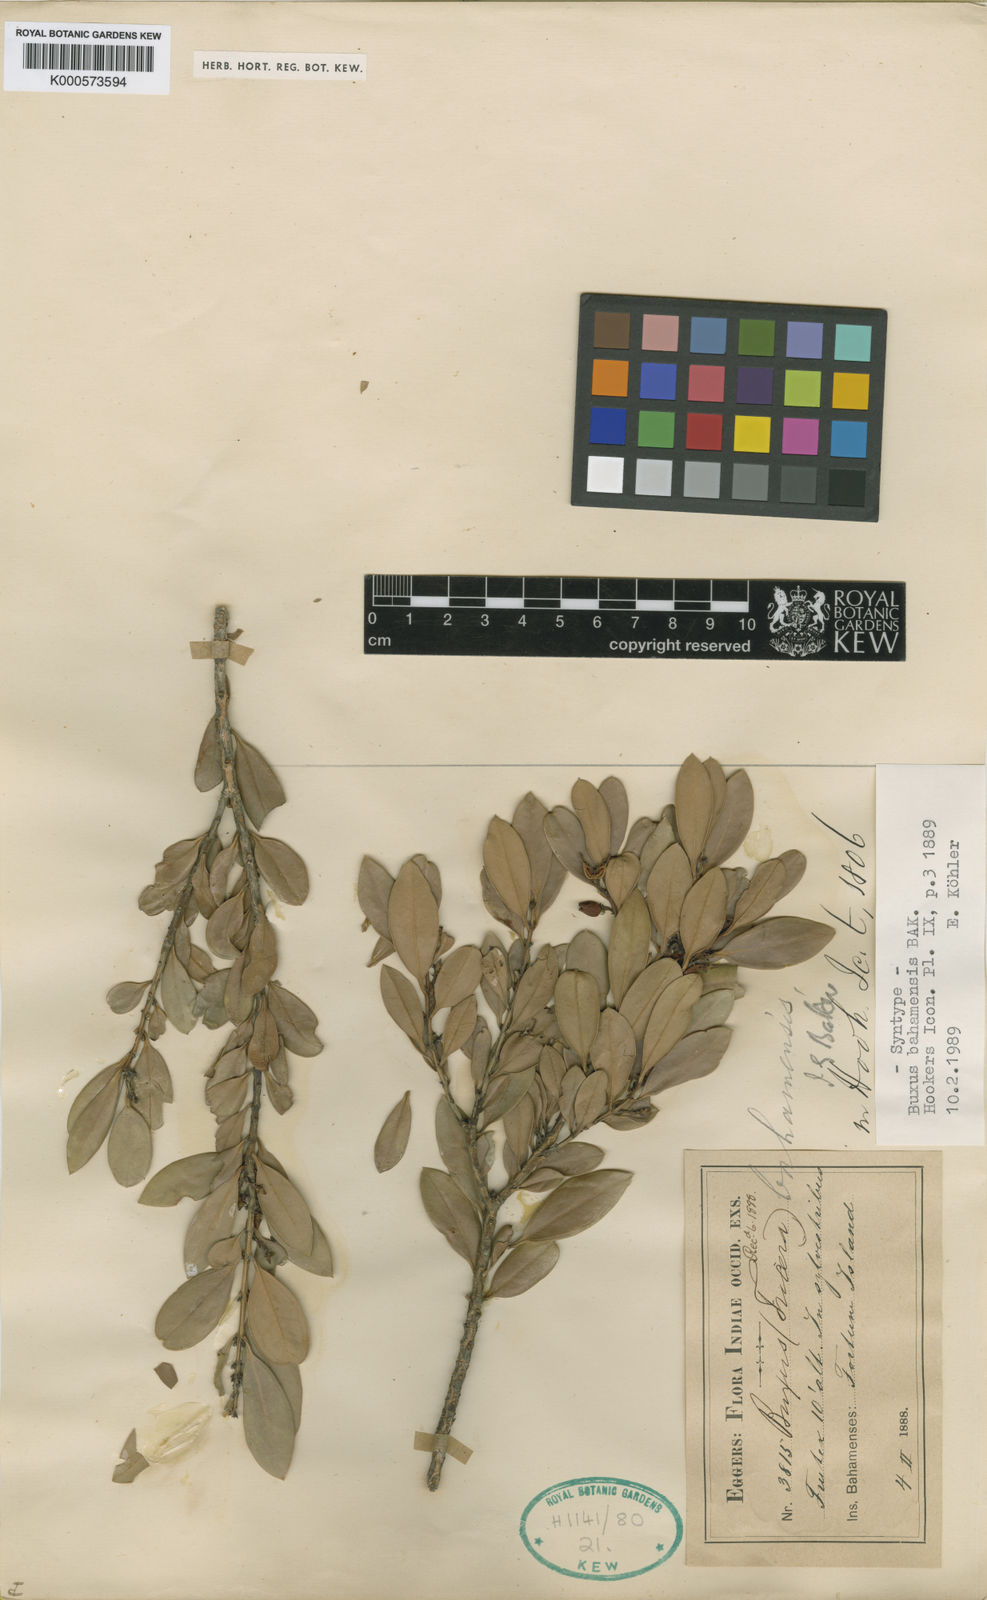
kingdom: Plantae
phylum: Tracheophyta
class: Magnoliopsida
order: Buxales
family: Buxaceae
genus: Buxus
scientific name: Buxus bahamensis
